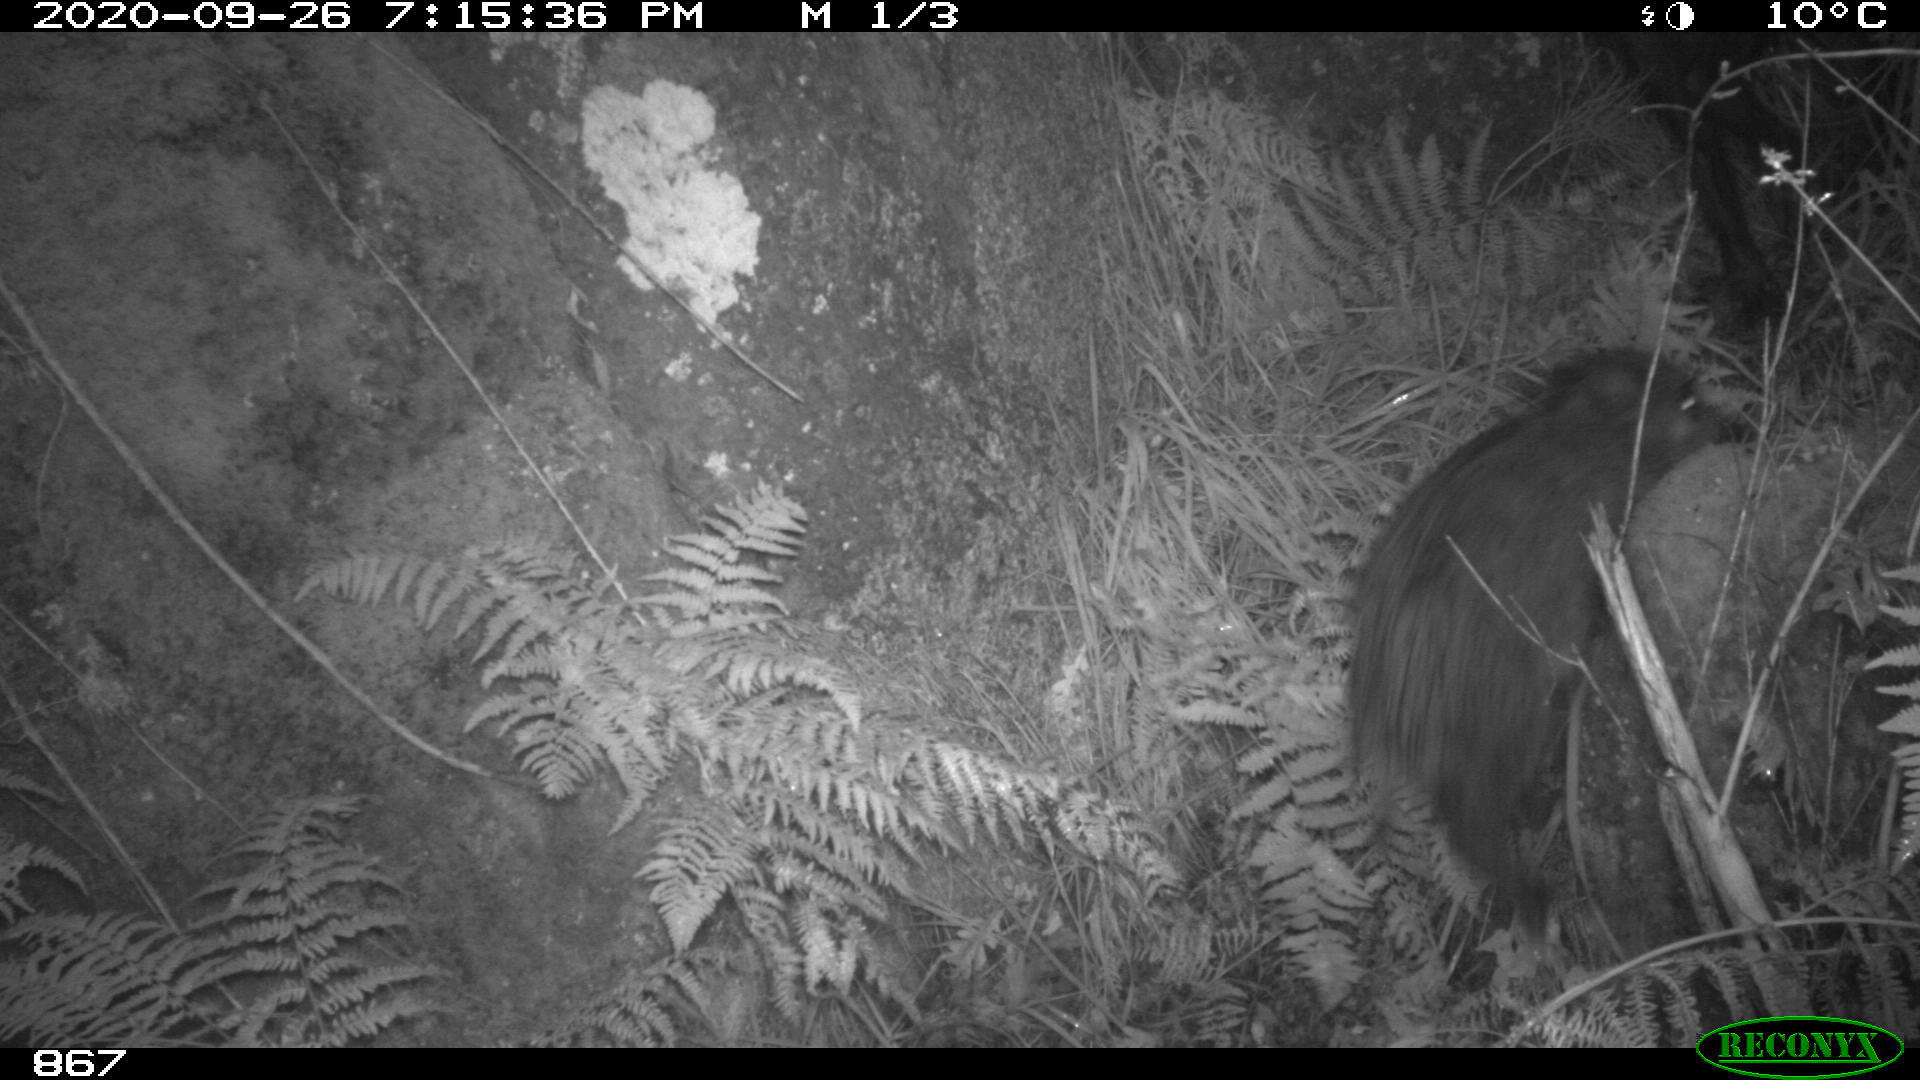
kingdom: Animalia
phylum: Chordata
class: Mammalia
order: Artiodactyla
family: Suidae
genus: Sus
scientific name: Sus scrofa
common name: Wild boar
